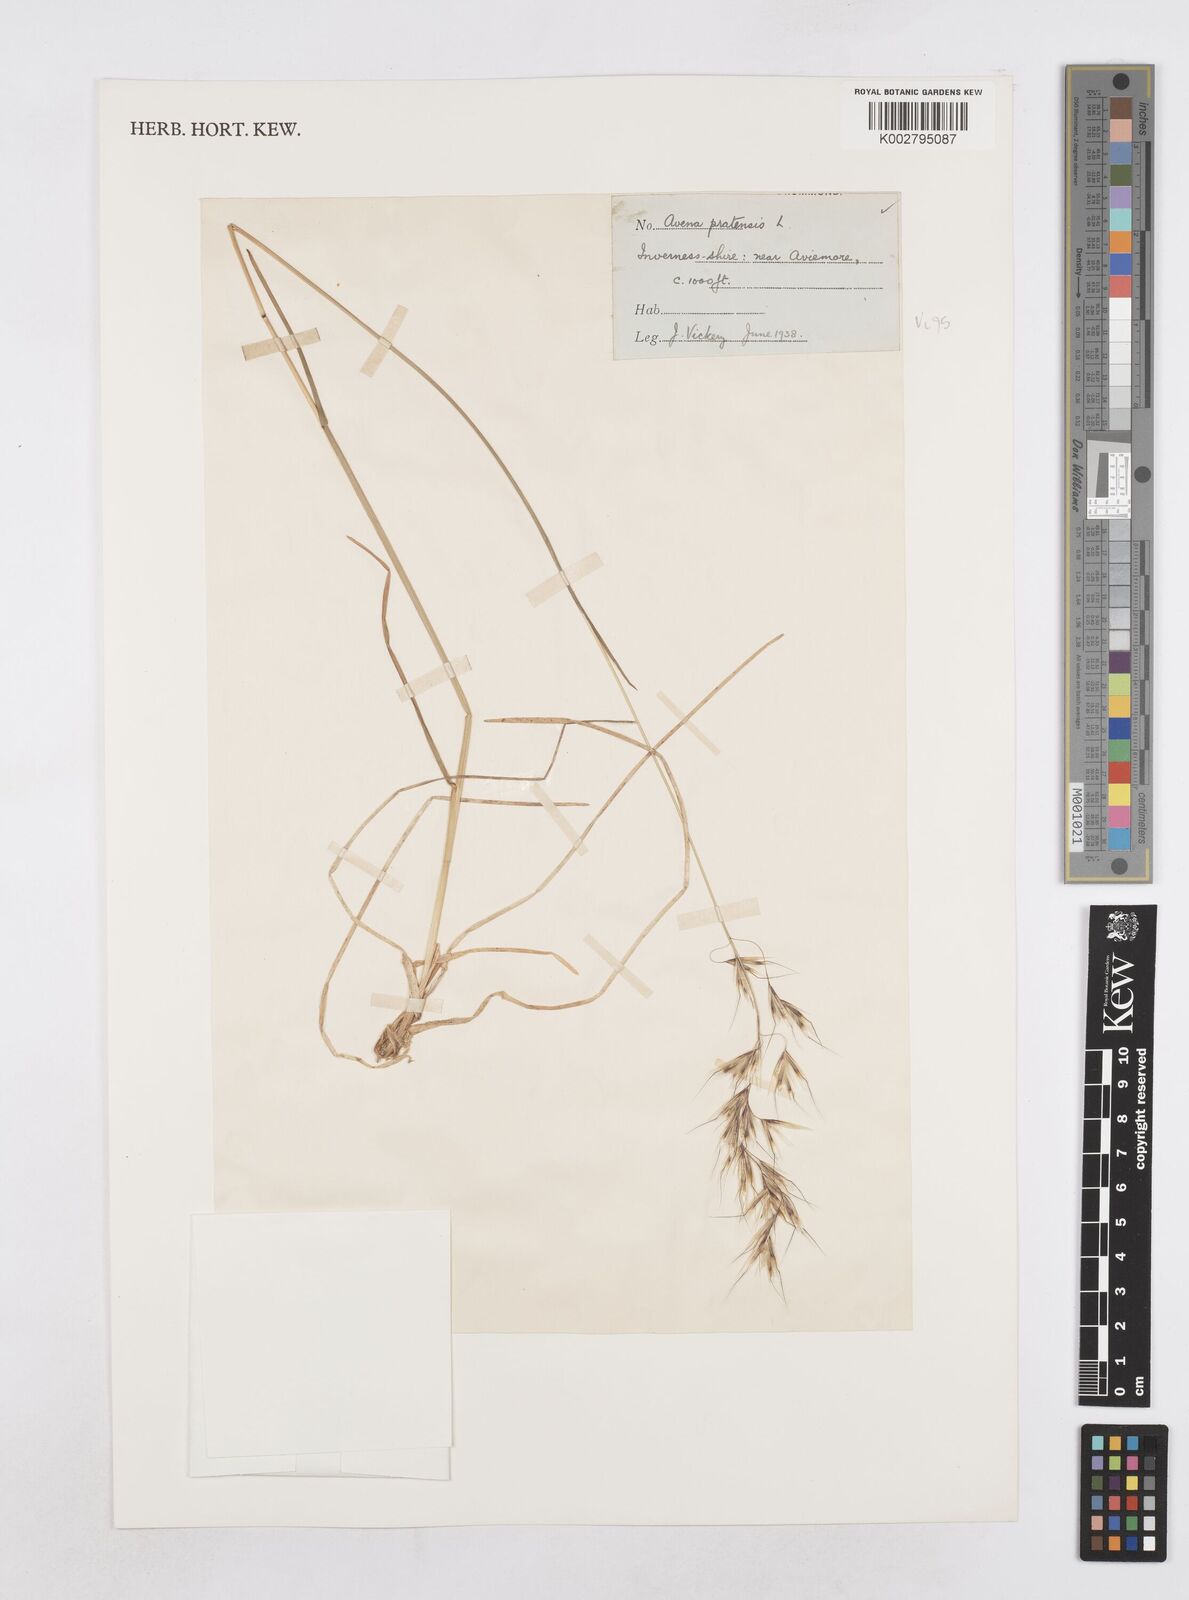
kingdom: Plantae
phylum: Tracheophyta
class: Liliopsida
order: Poales
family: Poaceae
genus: Helictochloa
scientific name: Helictochloa pratensis
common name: Meadow oat grass
